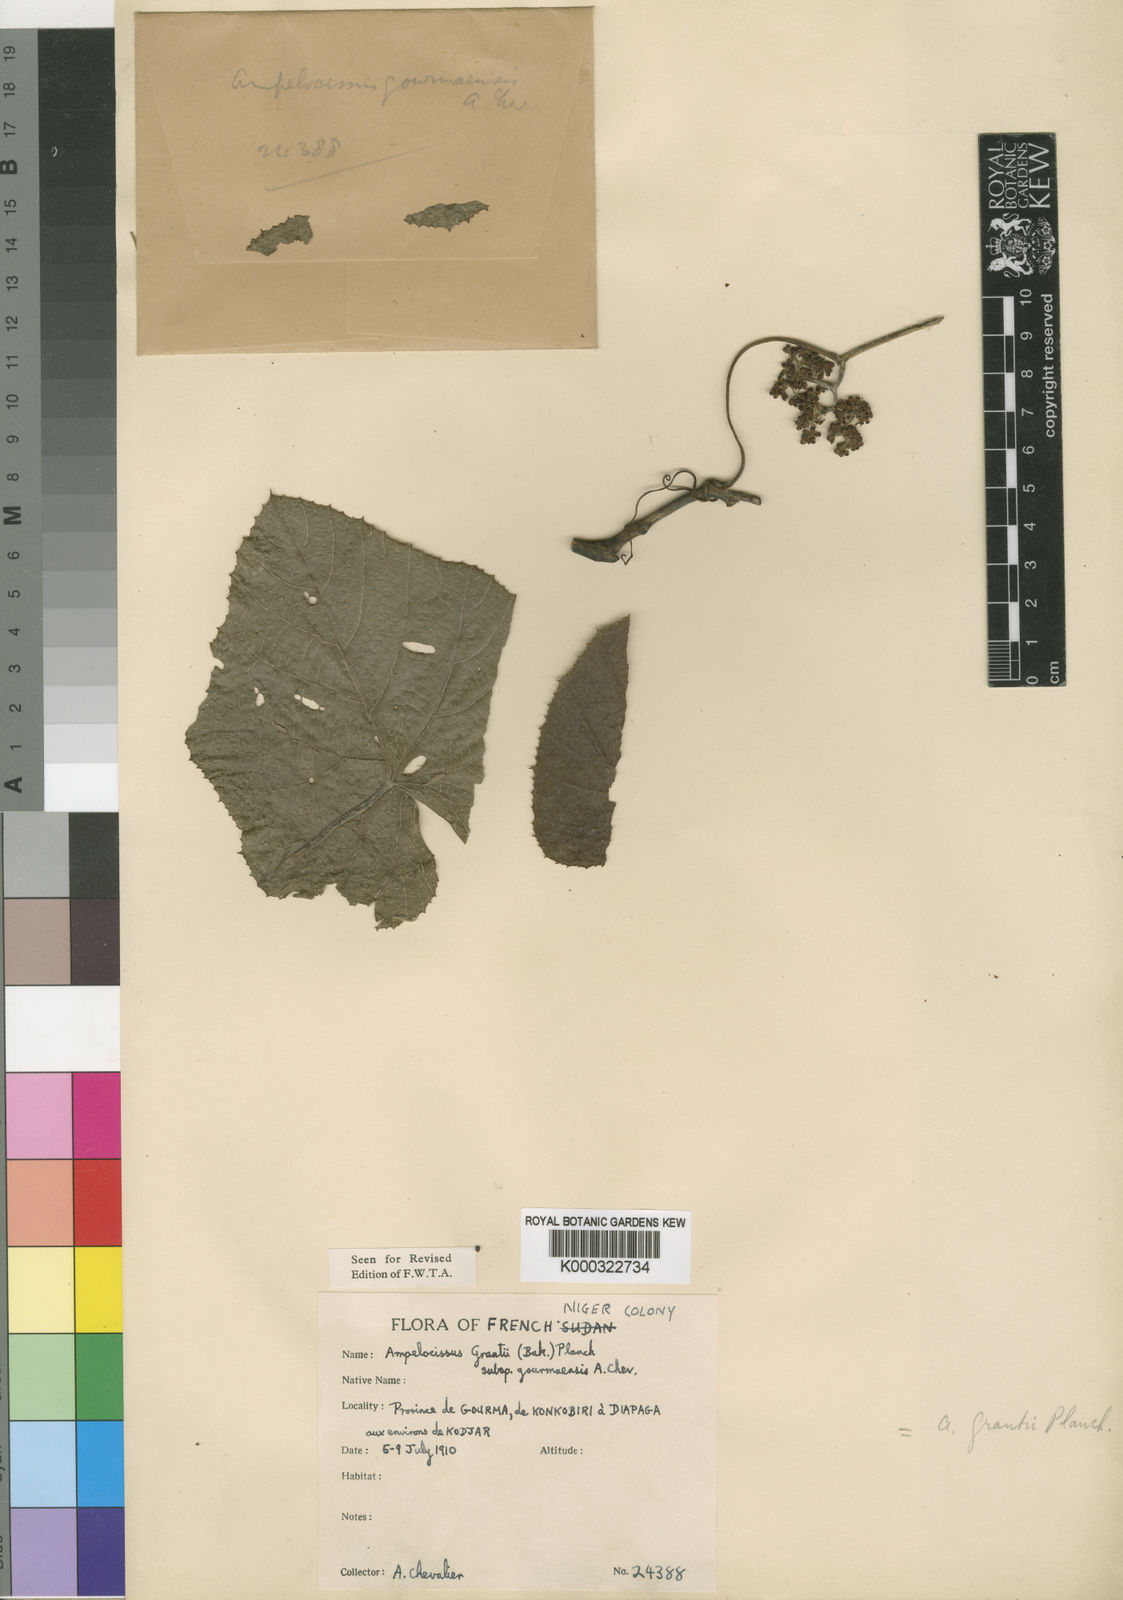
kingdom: Plantae
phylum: Tracheophyta
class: Magnoliopsida
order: Vitales
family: Vitaceae
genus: Ampelocissus
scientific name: Ampelocissus africana
